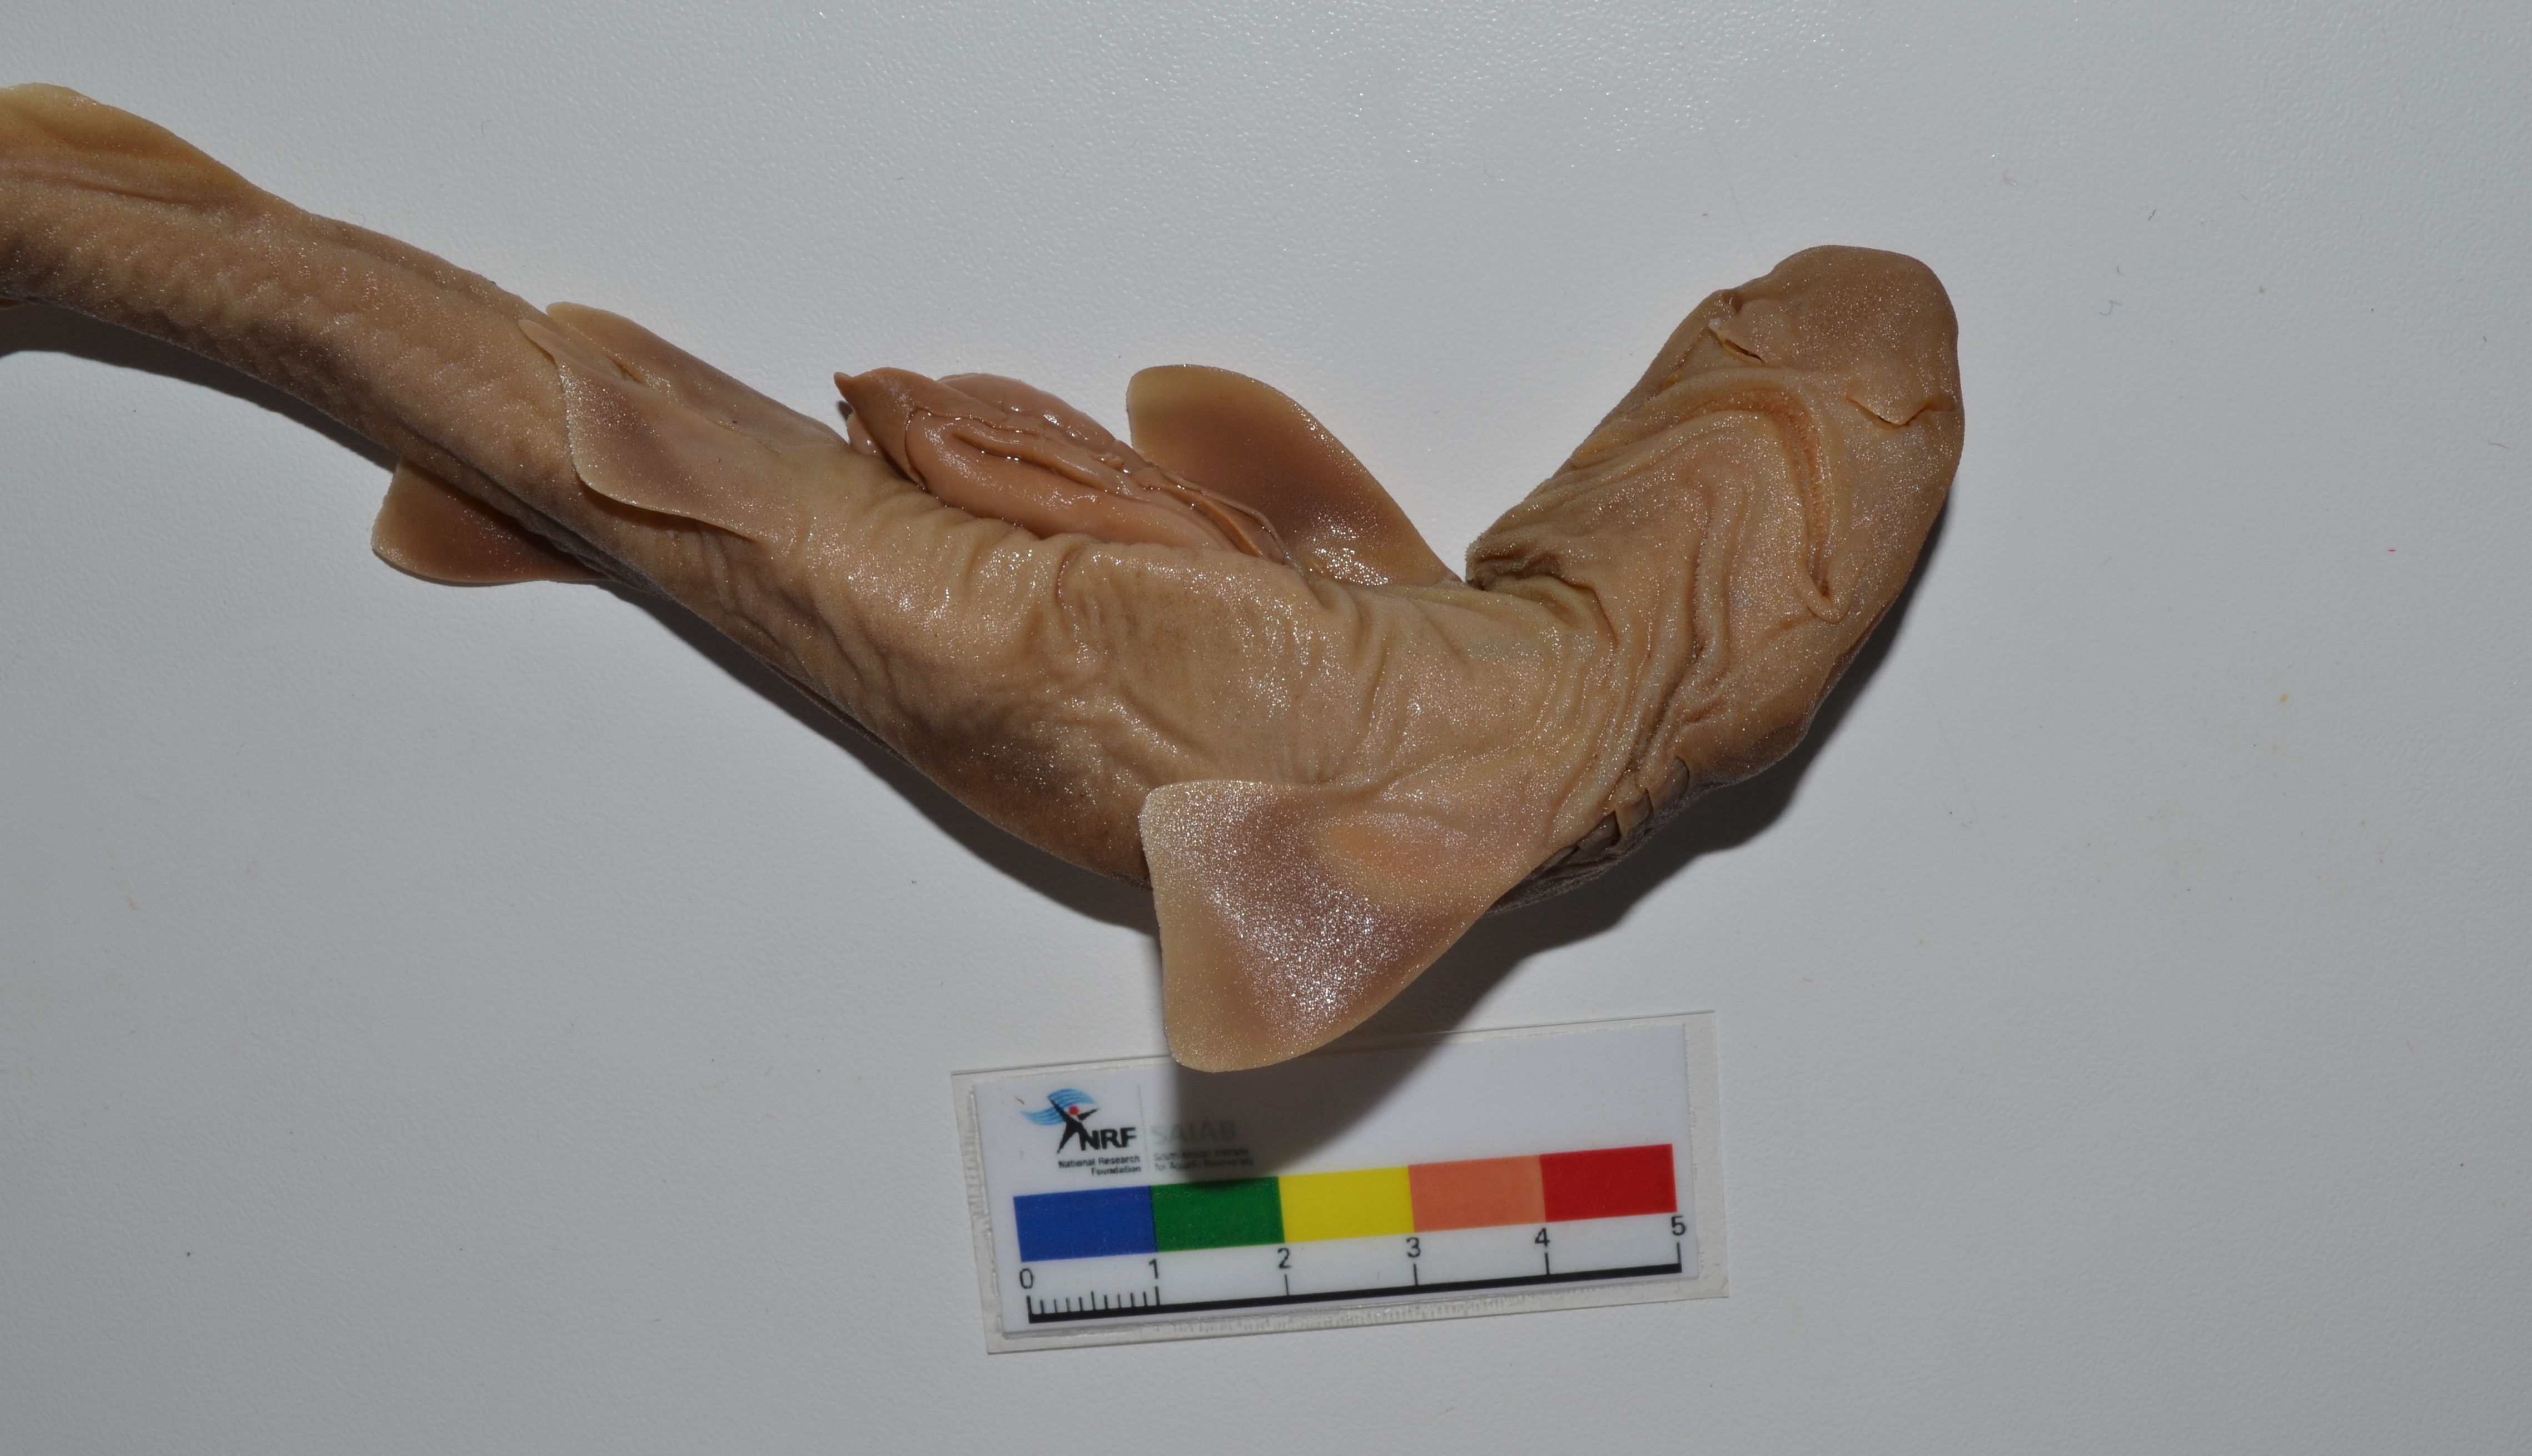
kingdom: Animalia
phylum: Chordata
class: Elasmobranchii
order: Carcharhiniformes
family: Scyliorhinidae
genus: Bythaelurus
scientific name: Bythaelurus hispidus
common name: Bristly catshark
